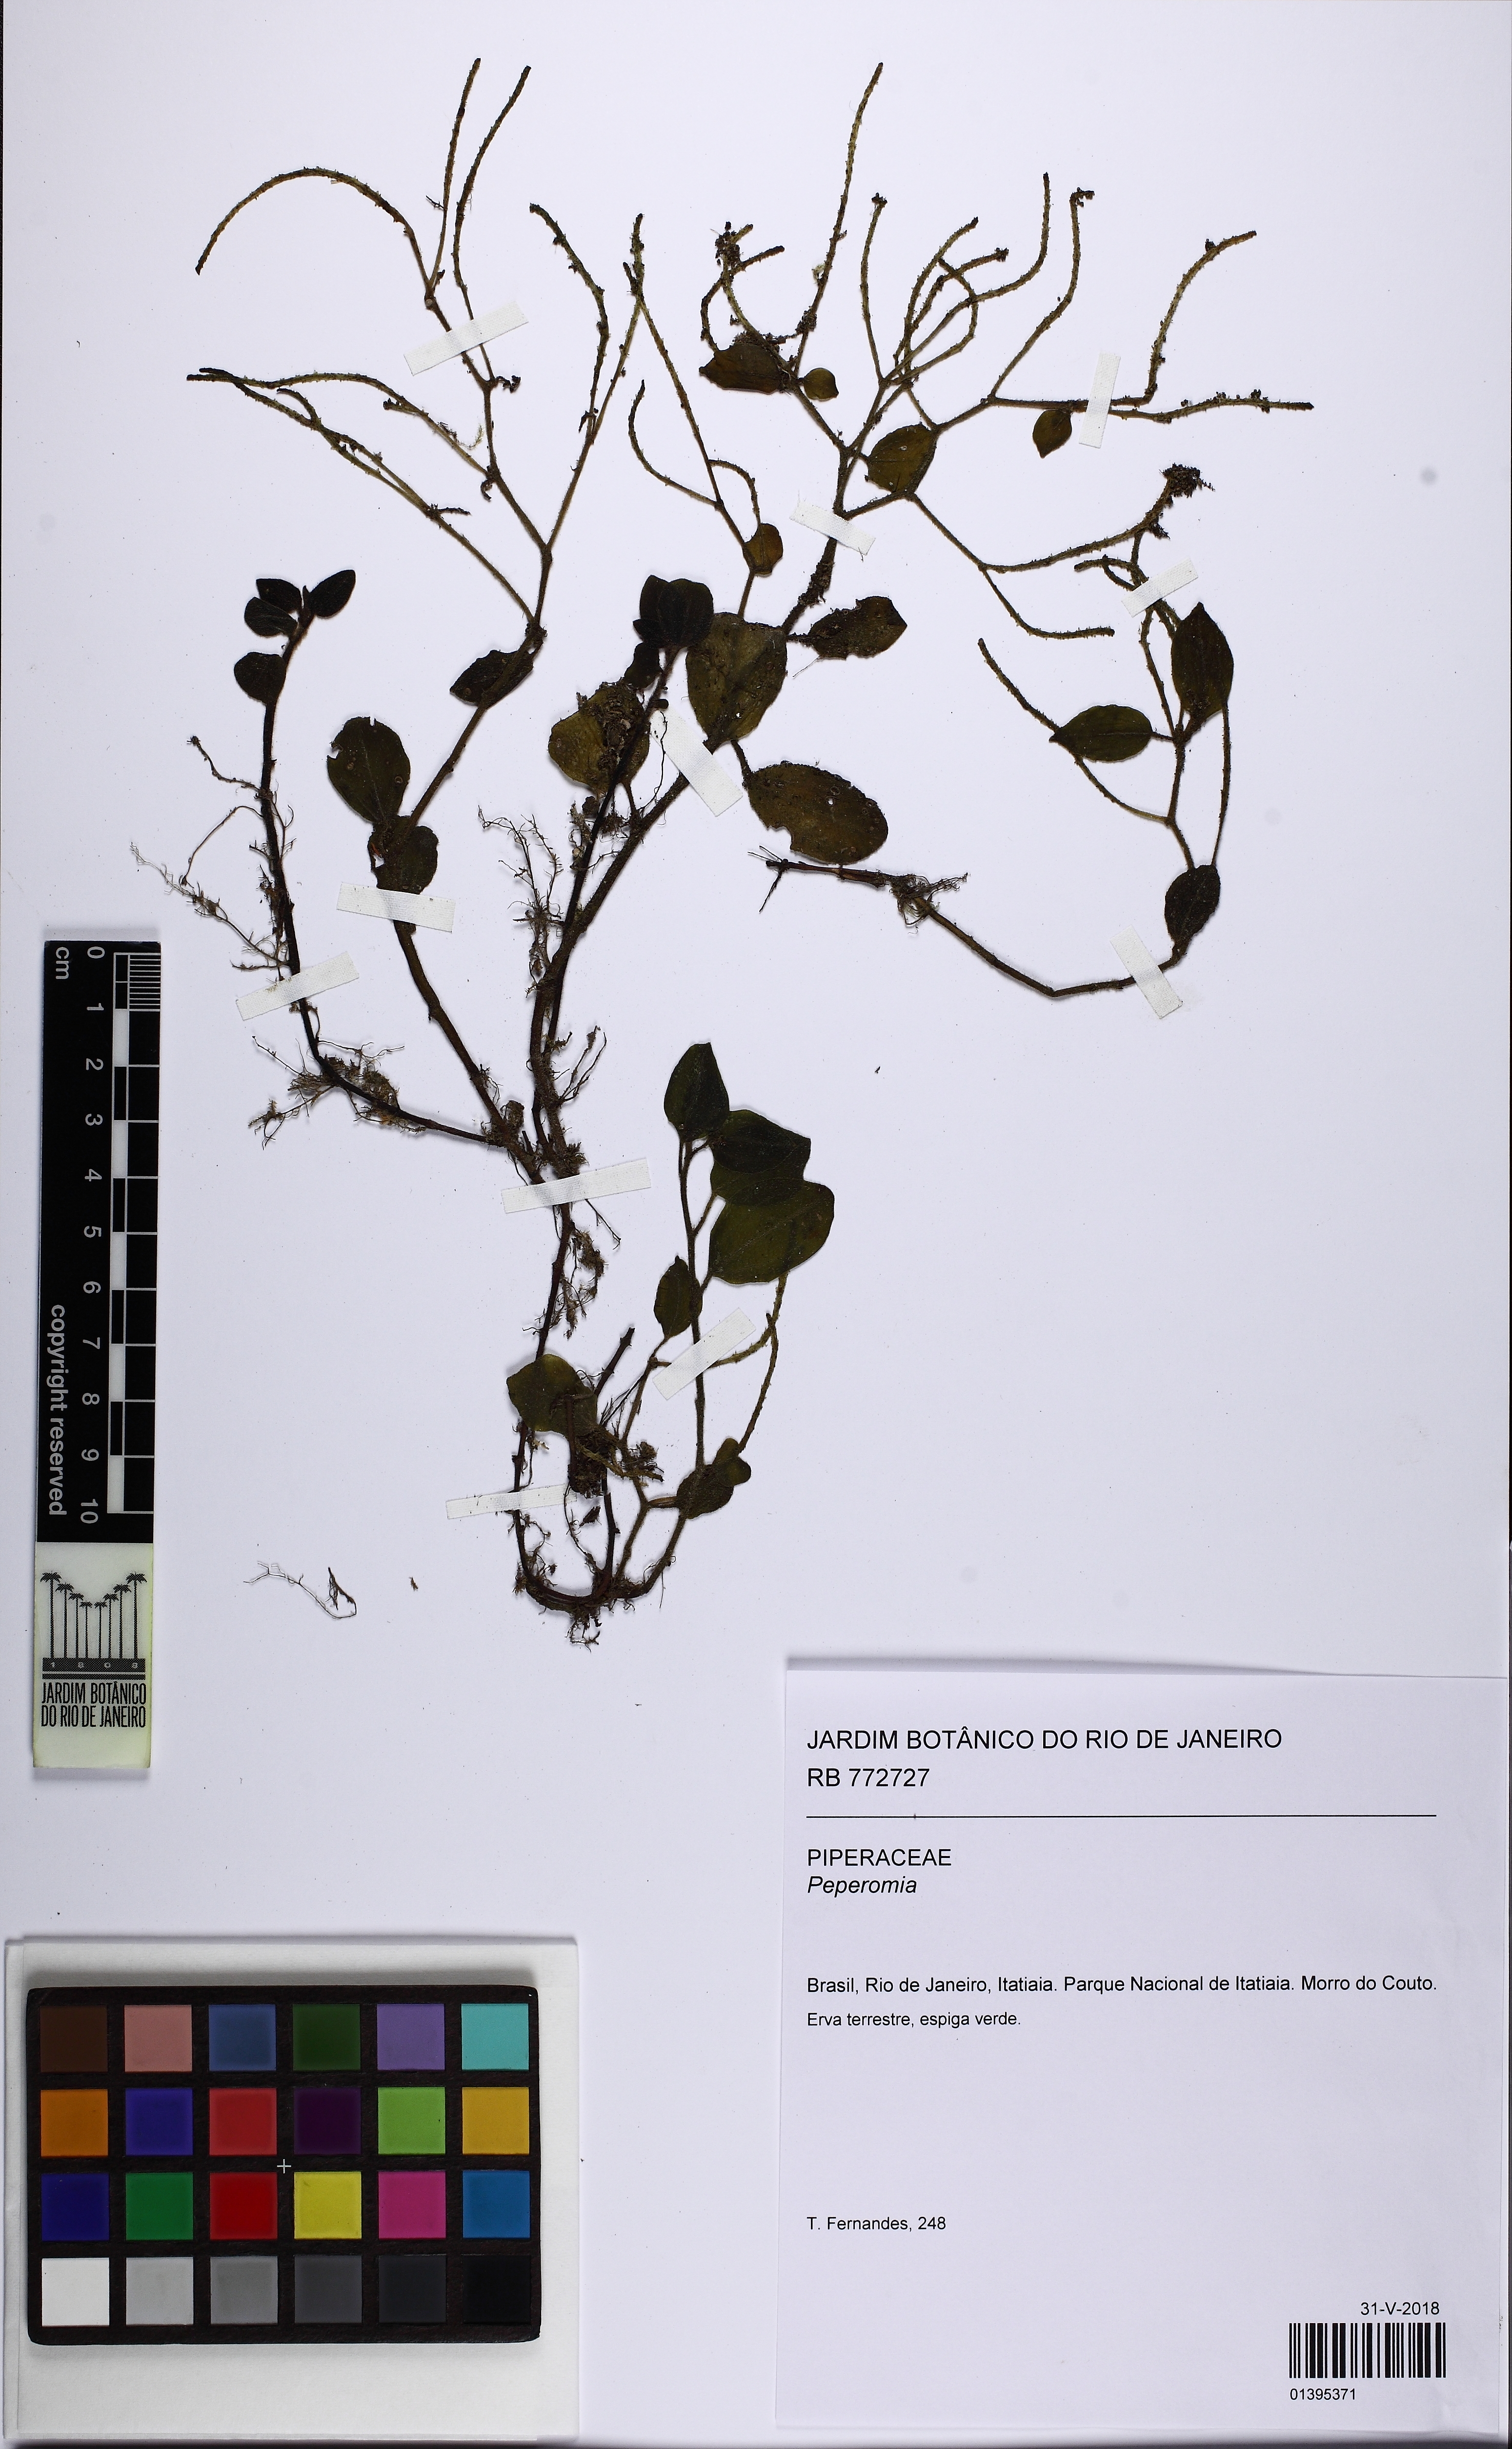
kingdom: Plantae
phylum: Tracheophyta
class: Magnoliopsida
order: Piperales
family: Piperaceae
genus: Peperomia
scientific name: Peperomia itatiaiana
